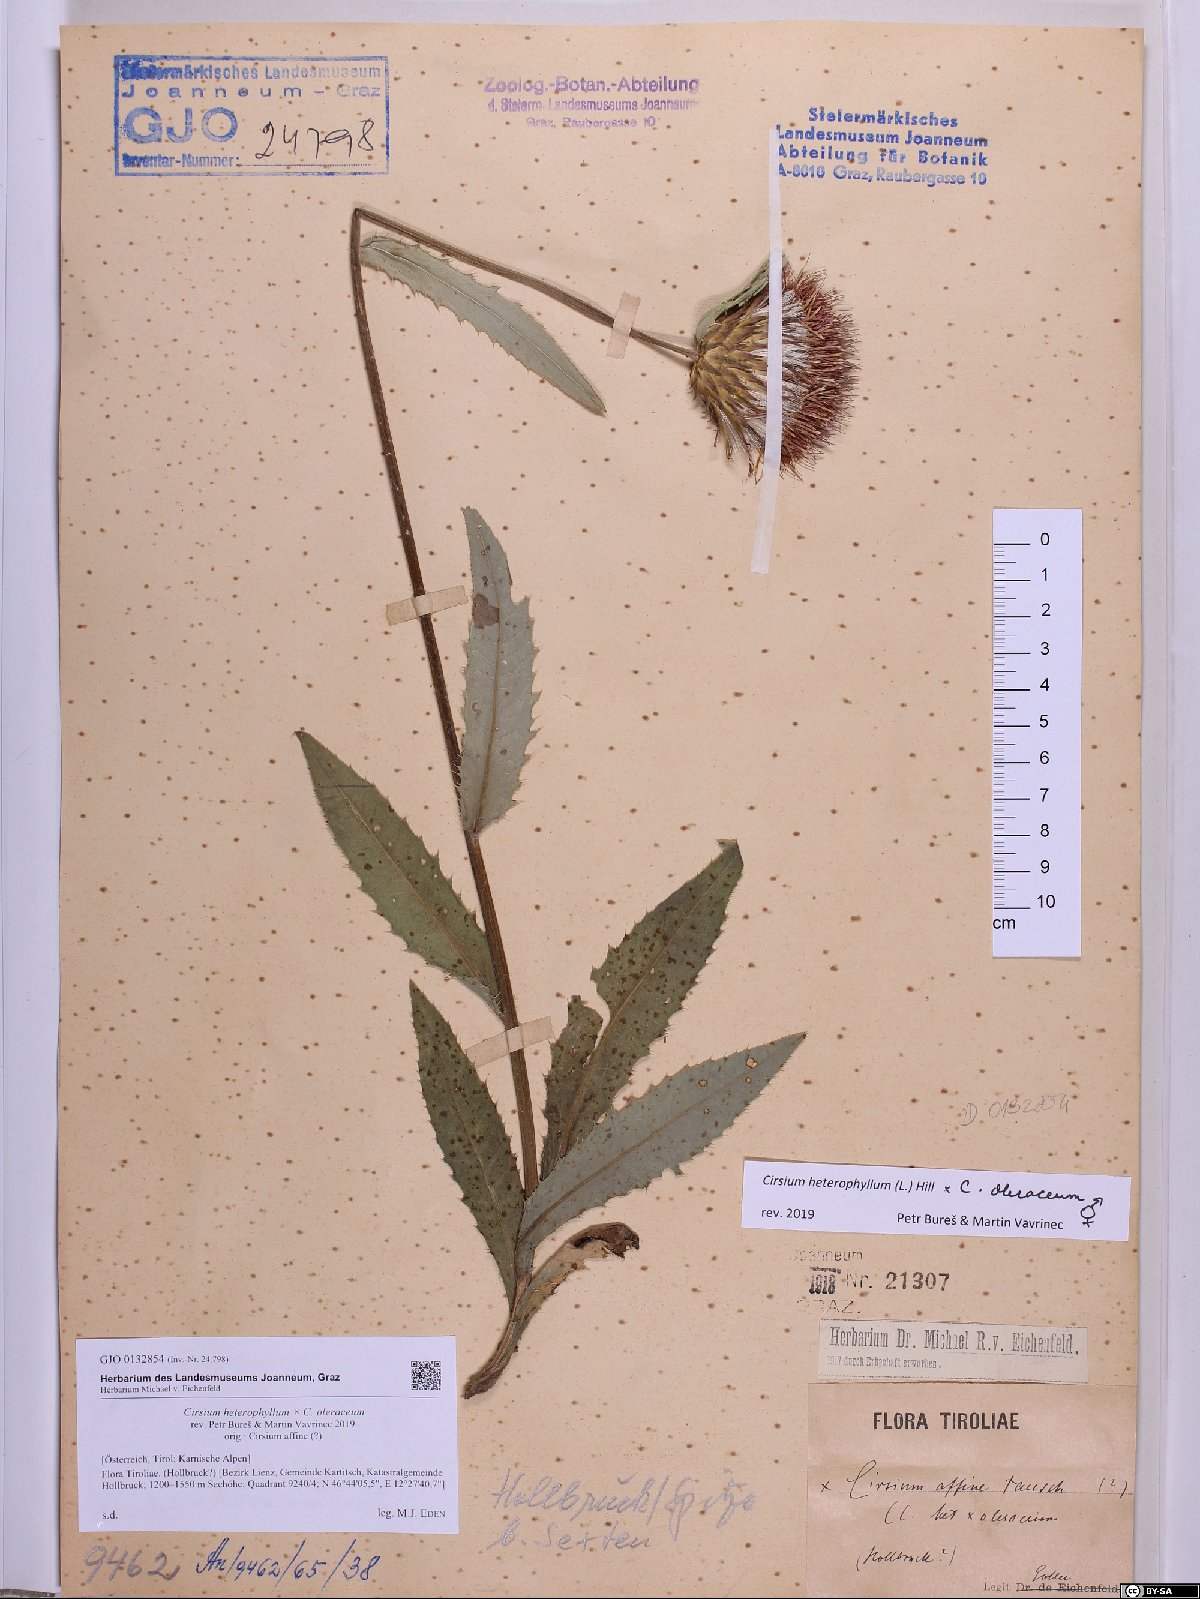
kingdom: Plantae
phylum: Tracheophyta
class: Magnoliopsida
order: Asterales
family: Asteraceae
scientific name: Asteraceae
